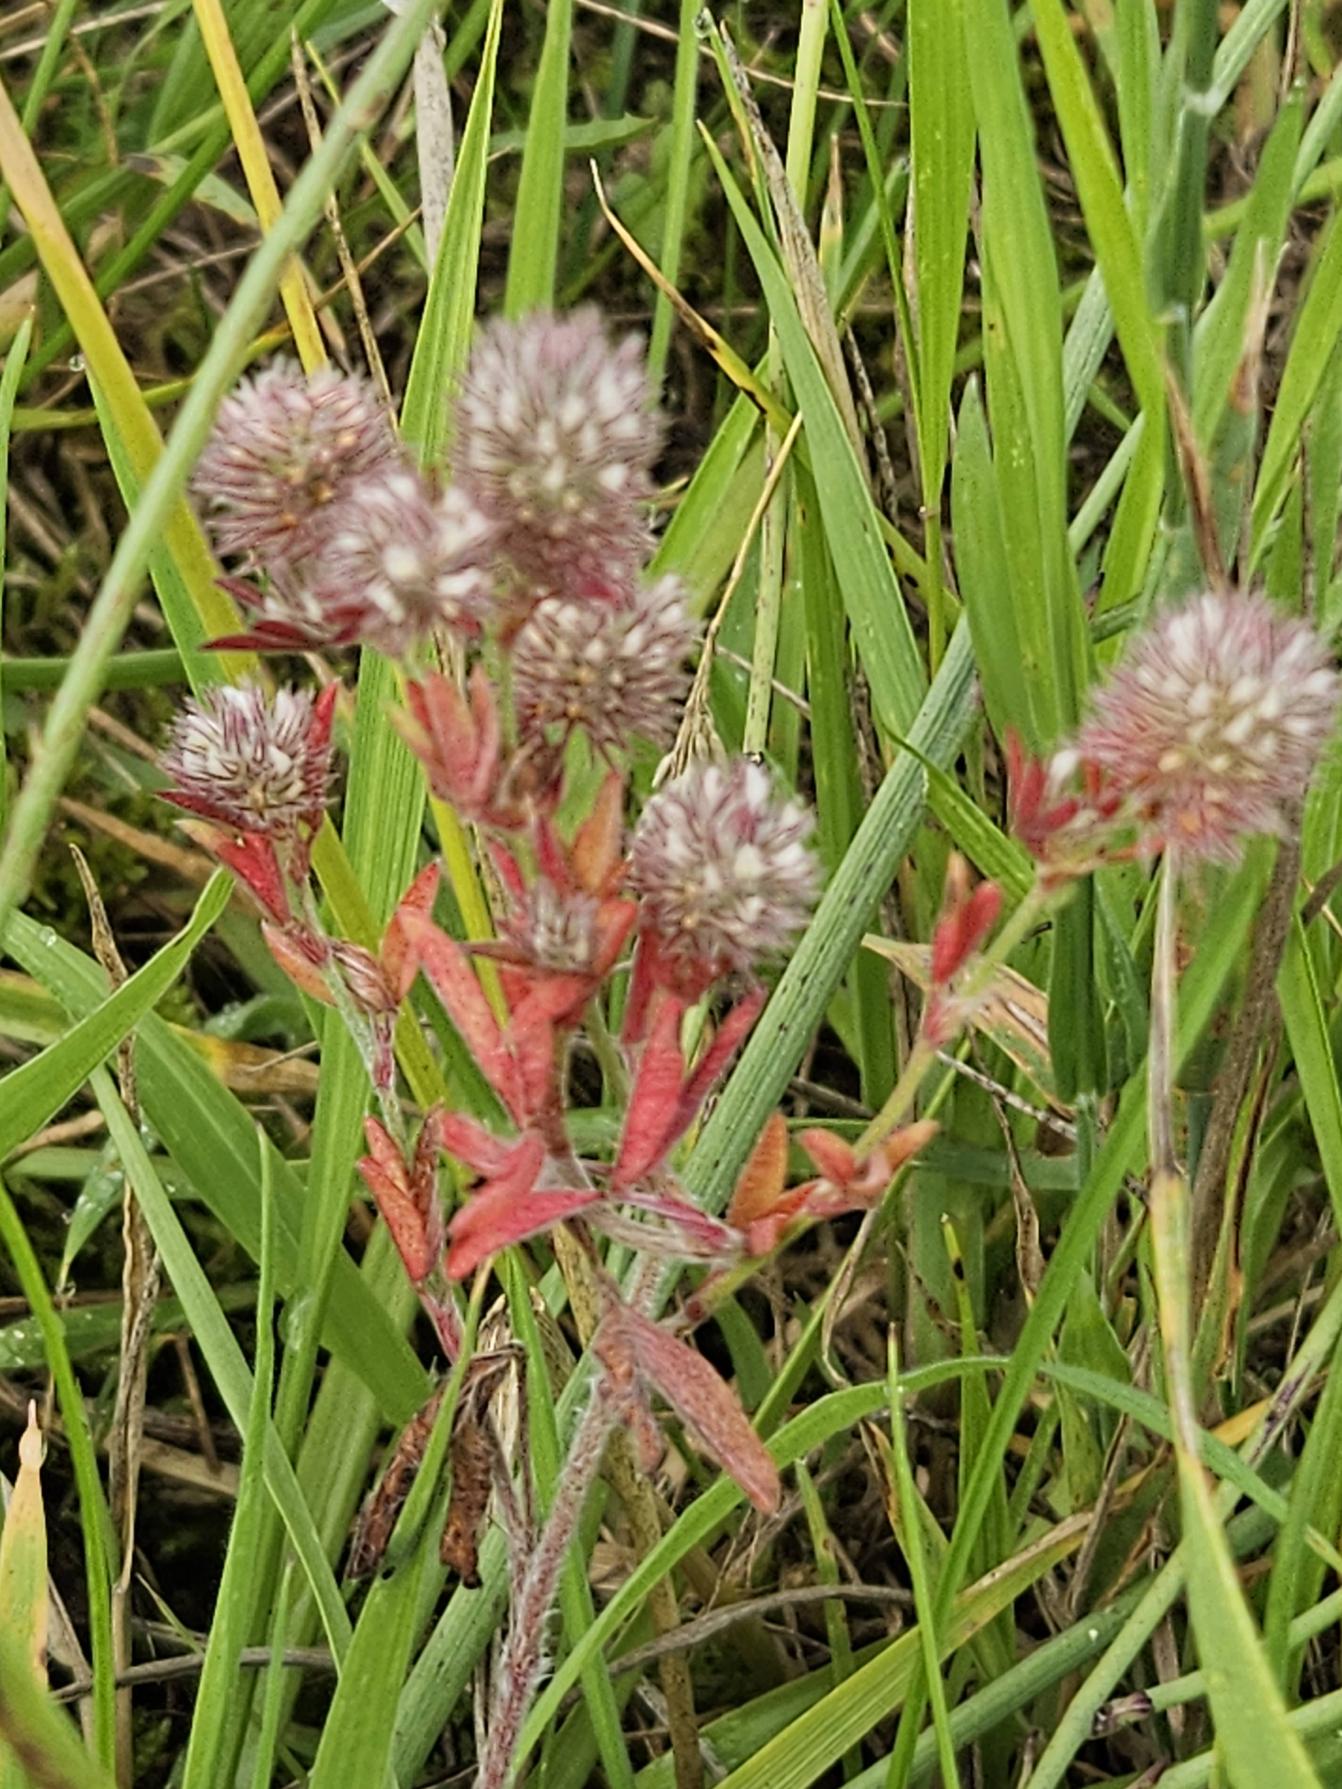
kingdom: Plantae
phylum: Tracheophyta
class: Magnoliopsida
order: Fabales
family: Fabaceae
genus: Trifolium
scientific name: Trifolium arvense
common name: Hare-kløver
